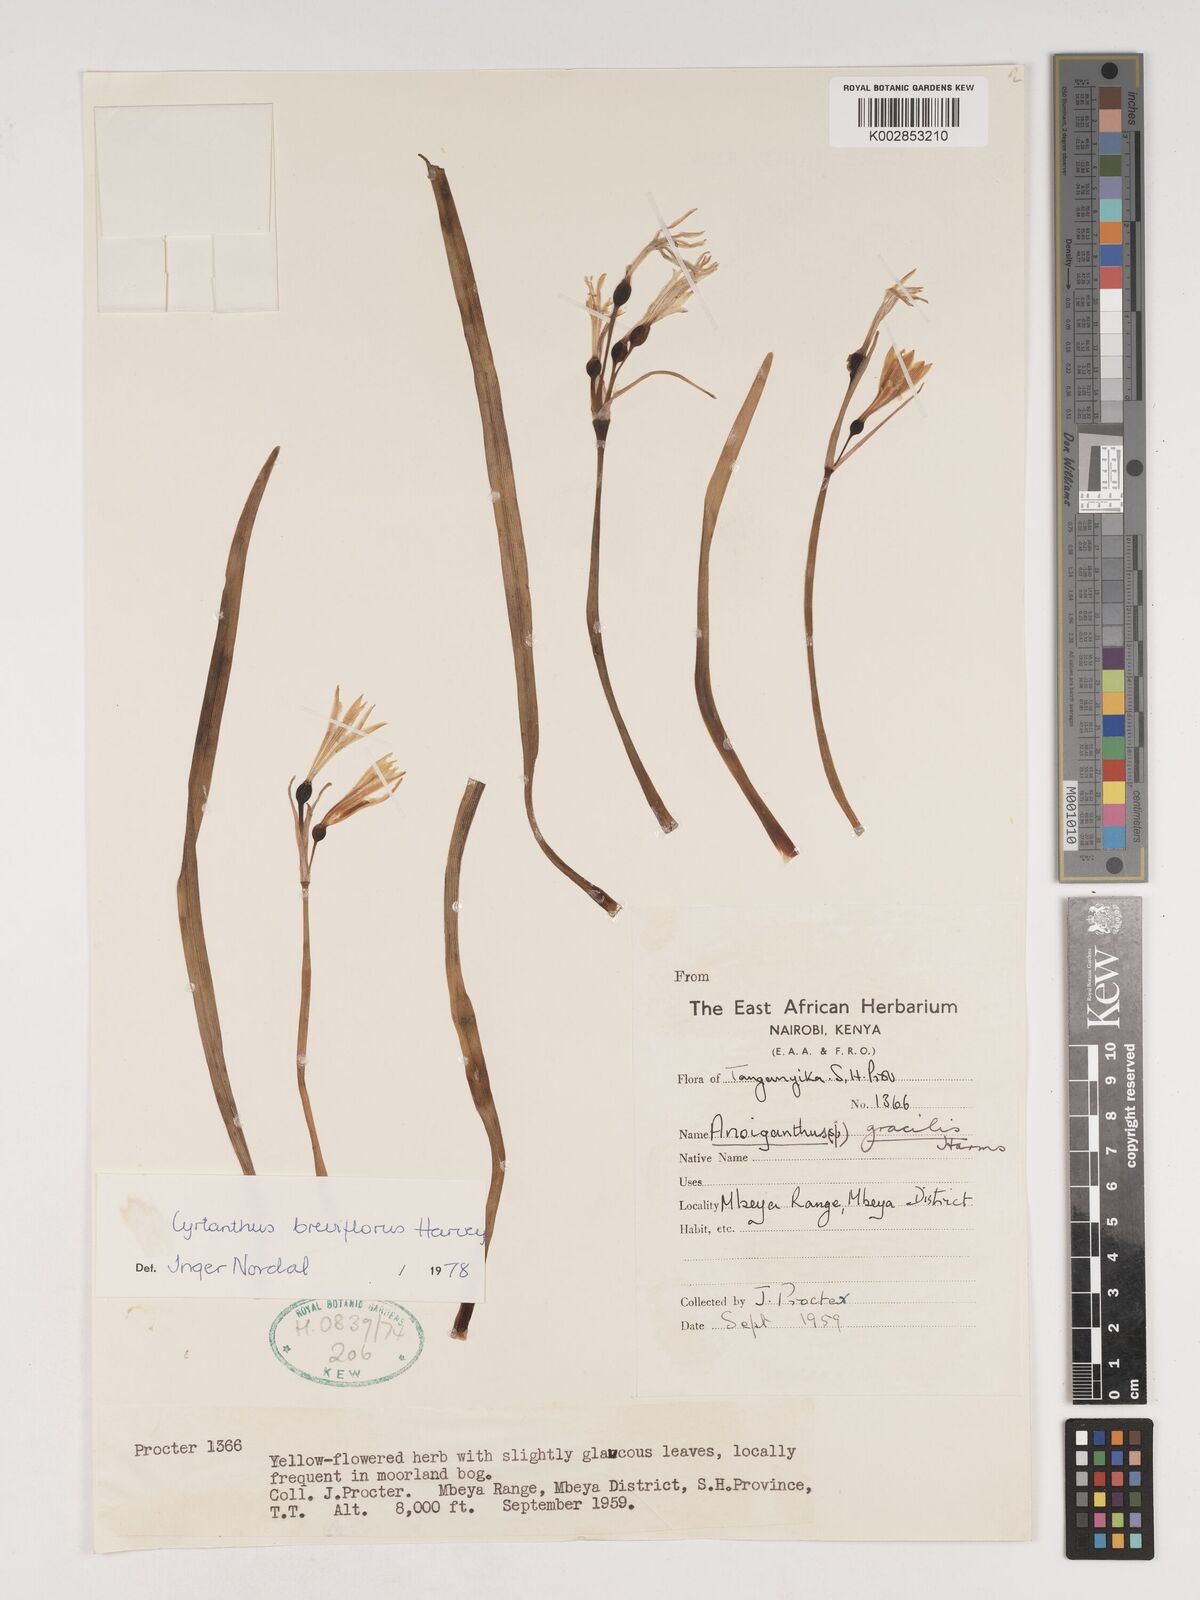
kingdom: Plantae
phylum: Tracheophyta
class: Liliopsida
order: Asparagales
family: Amaryllidaceae
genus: Cyrtanthus
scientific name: Cyrtanthus breviflorus
